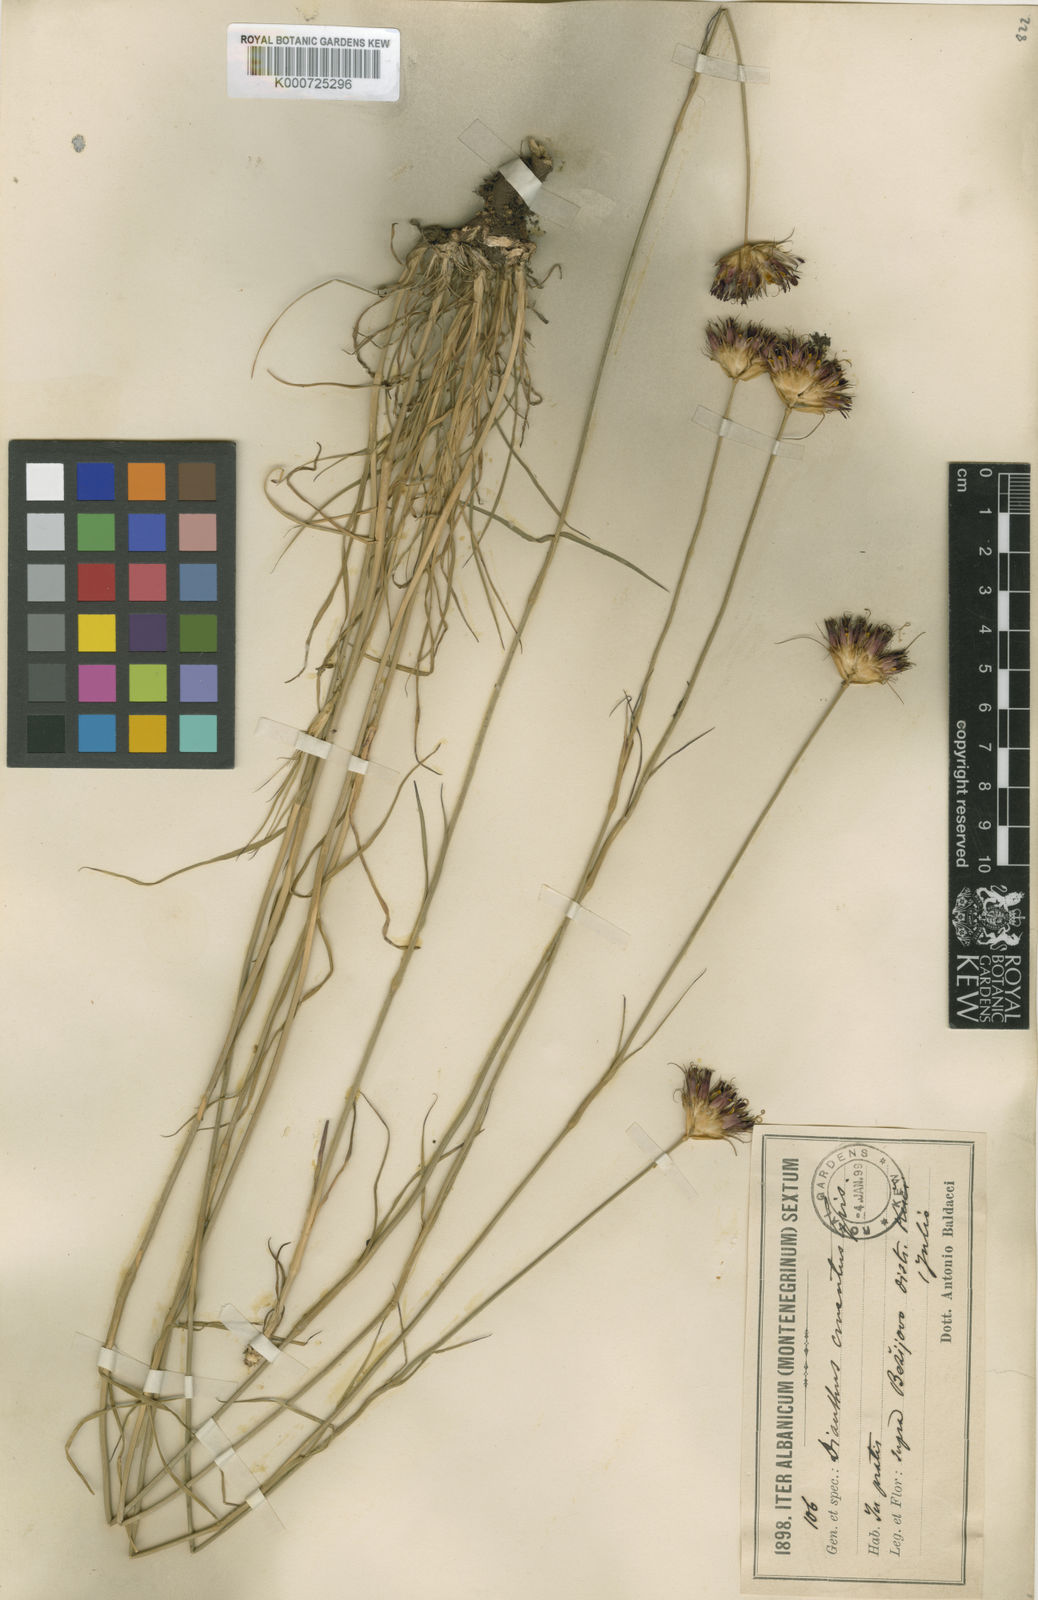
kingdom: Plantae
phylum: Tracheophyta
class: Magnoliopsida
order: Caryophyllales
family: Caryophyllaceae
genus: Dianthus
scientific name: Dianthus cruentus
